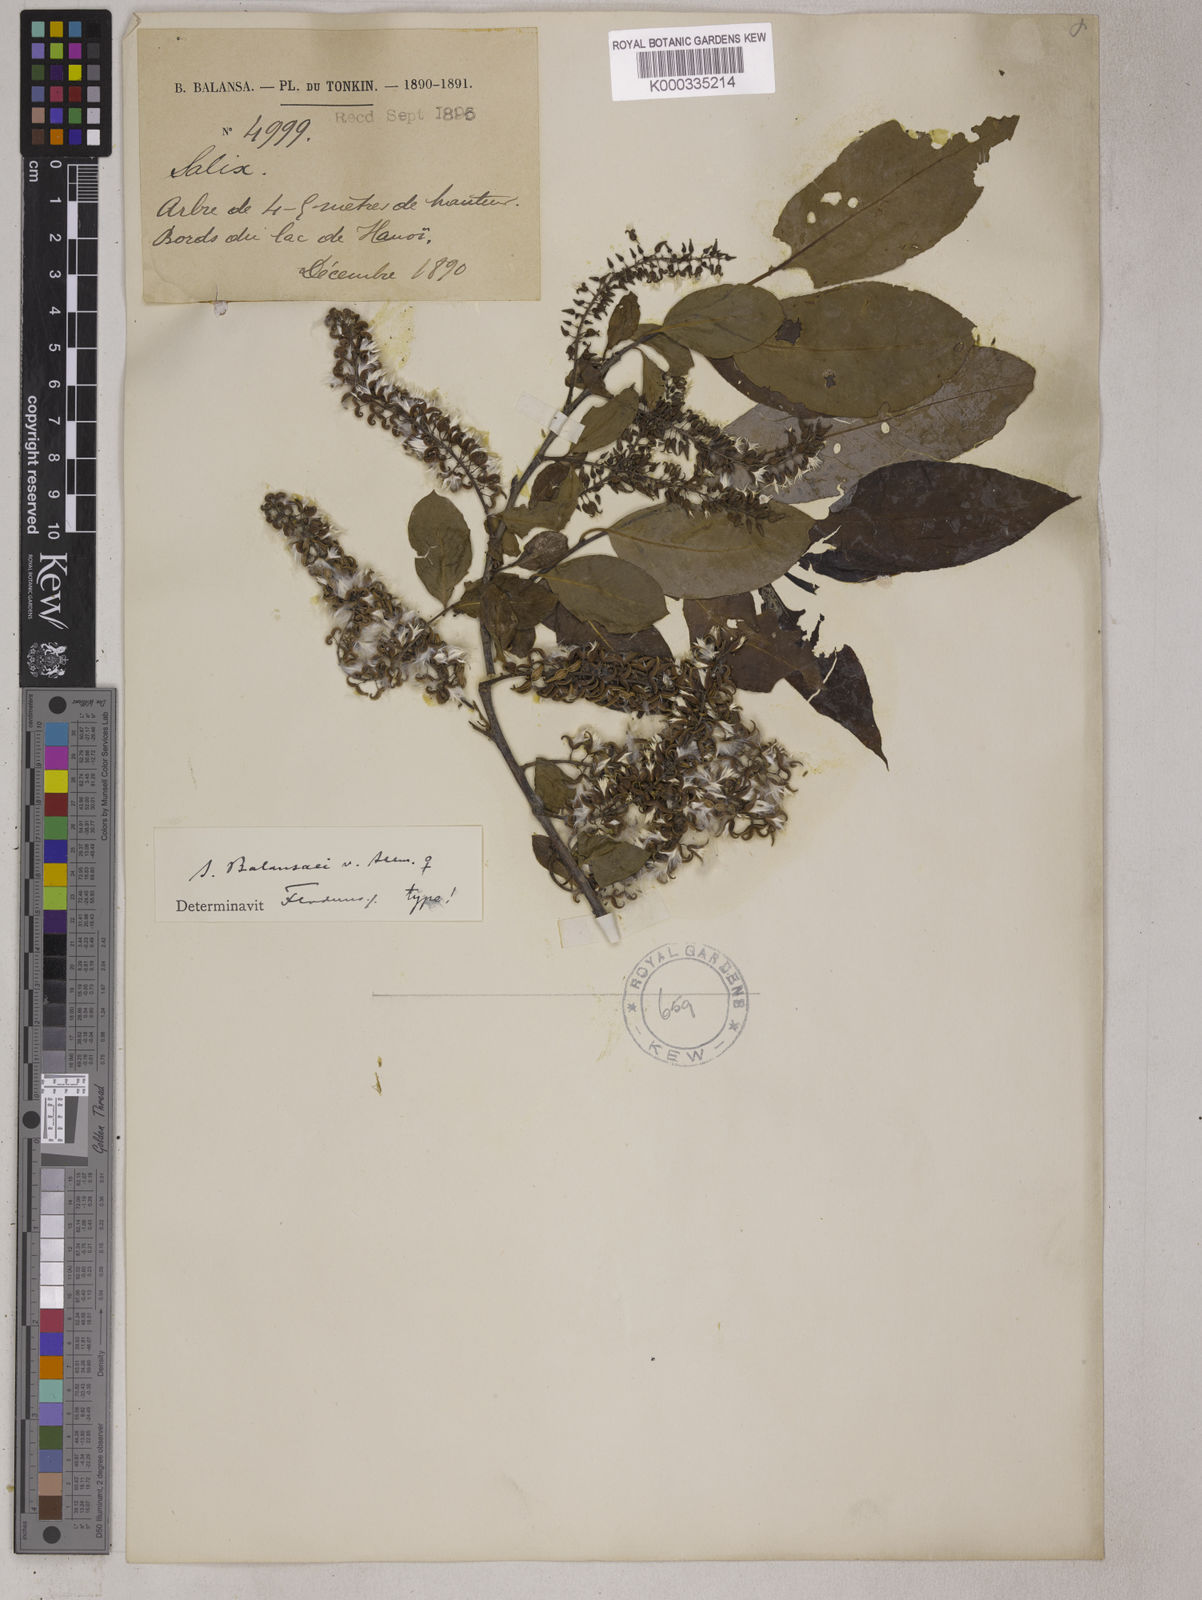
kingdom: Plantae
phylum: Tracheophyta
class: Magnoliopsida
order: Malpighiales
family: Salicaceae
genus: Salix
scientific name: Salix
